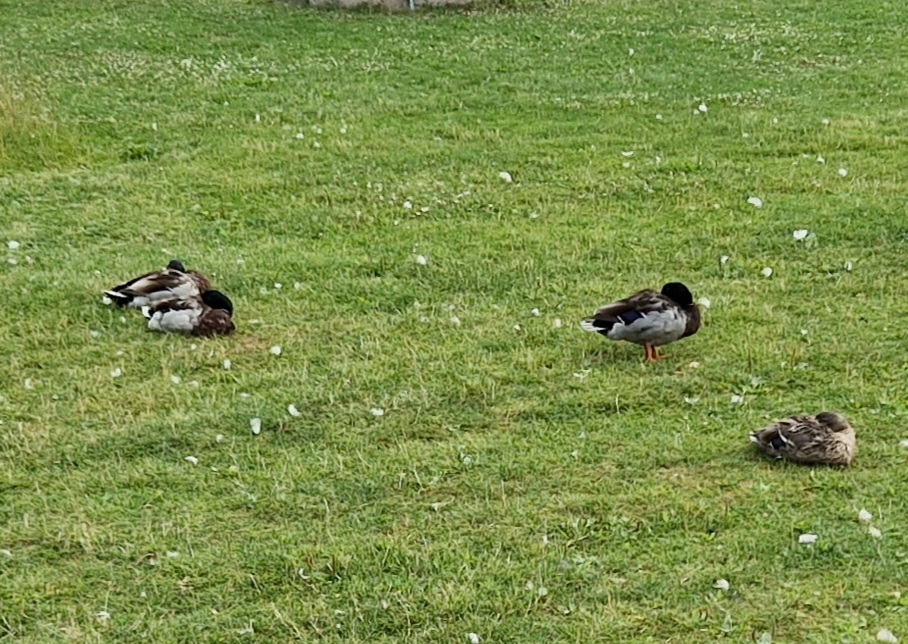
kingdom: Animalia
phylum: Chordata
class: Aves
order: Anseriformes
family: Anatidae
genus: Anas
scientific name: Anas platyrhynchos
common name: Gråand
